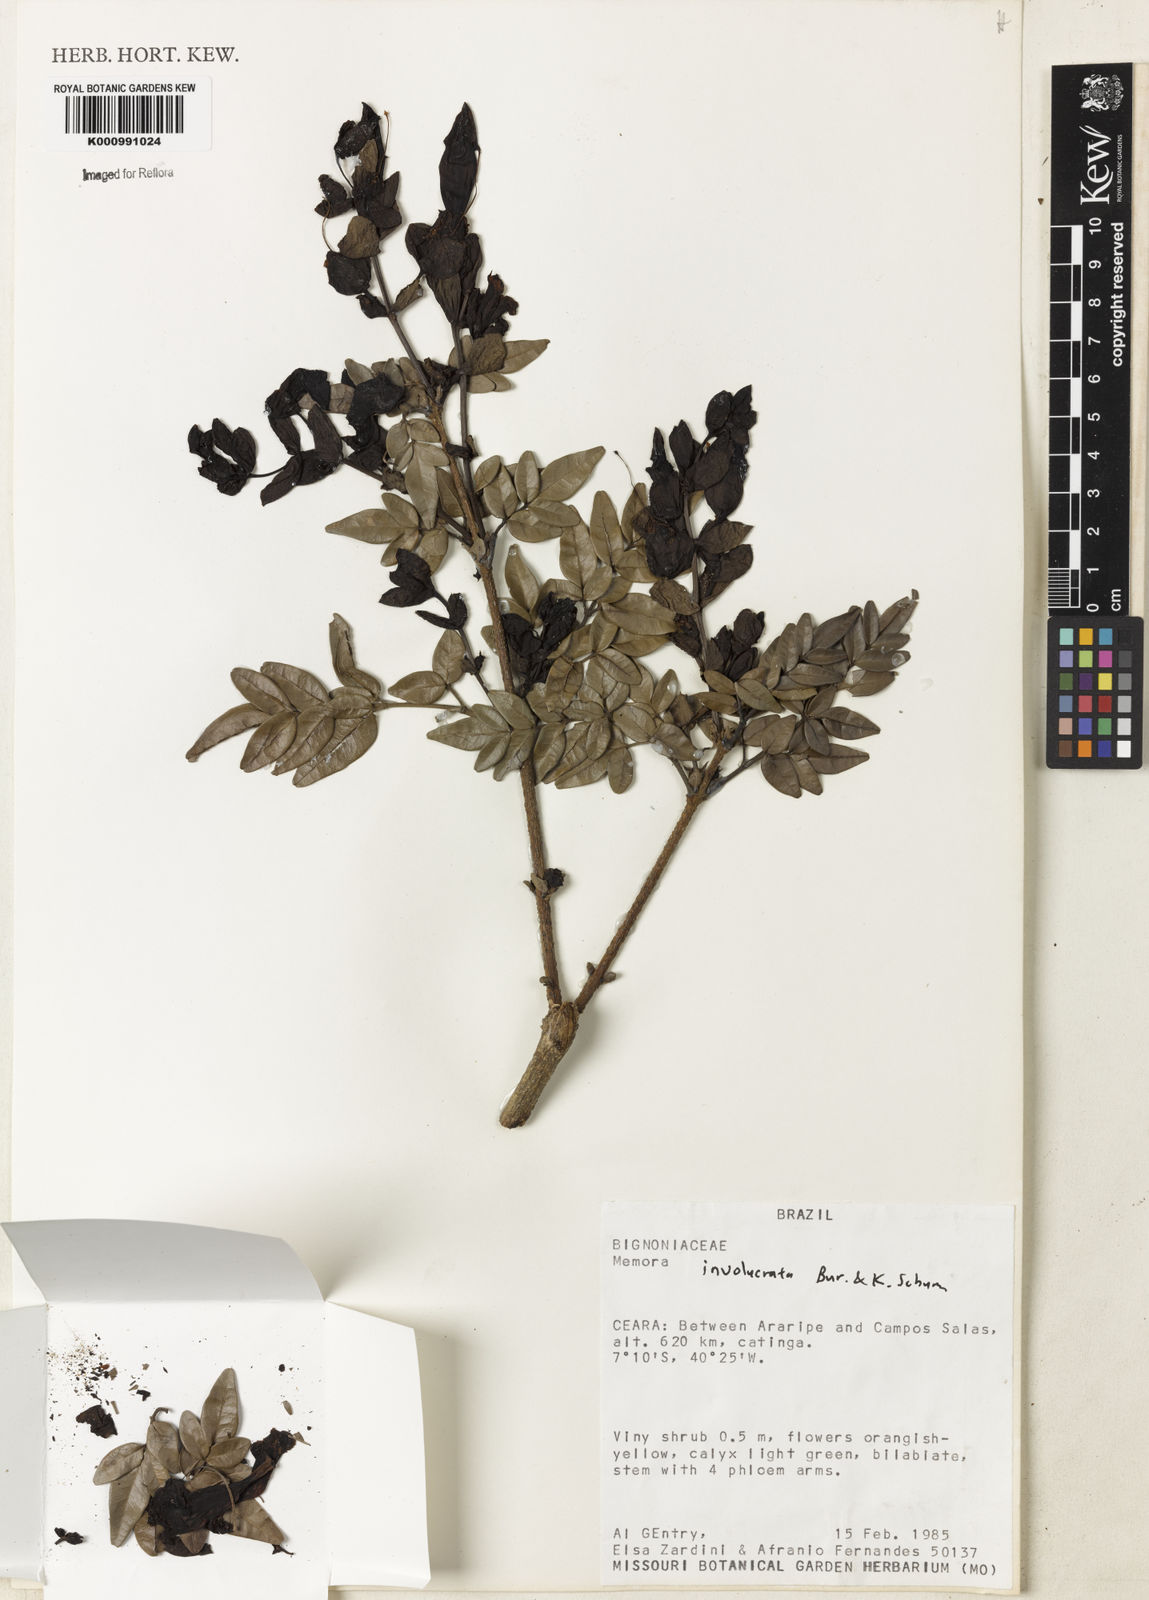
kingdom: Plantae
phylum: Tracheophyta
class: Magnoliopsida
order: Lamiales
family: Bignoniaceae
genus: Adenocalymma
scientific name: Adenocalymma involucratum
